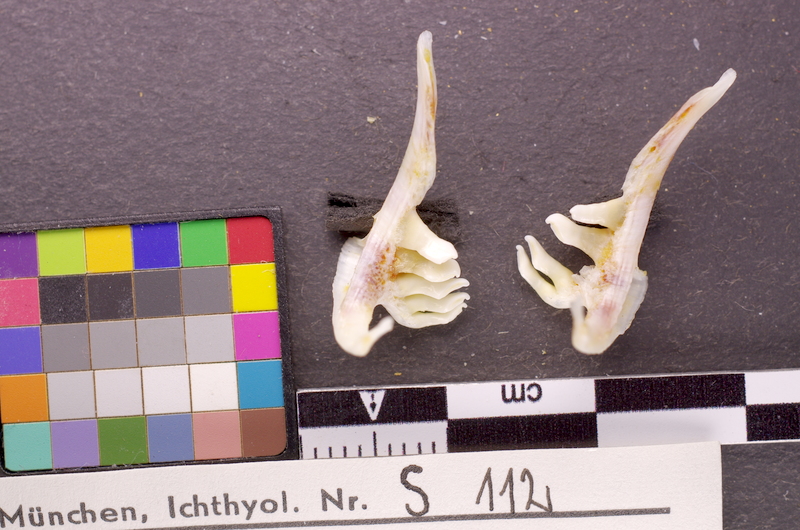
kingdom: Animalia
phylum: Chordata
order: Cypriniformes
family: Cyprinidae
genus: Abramis
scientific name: Abramis brama
